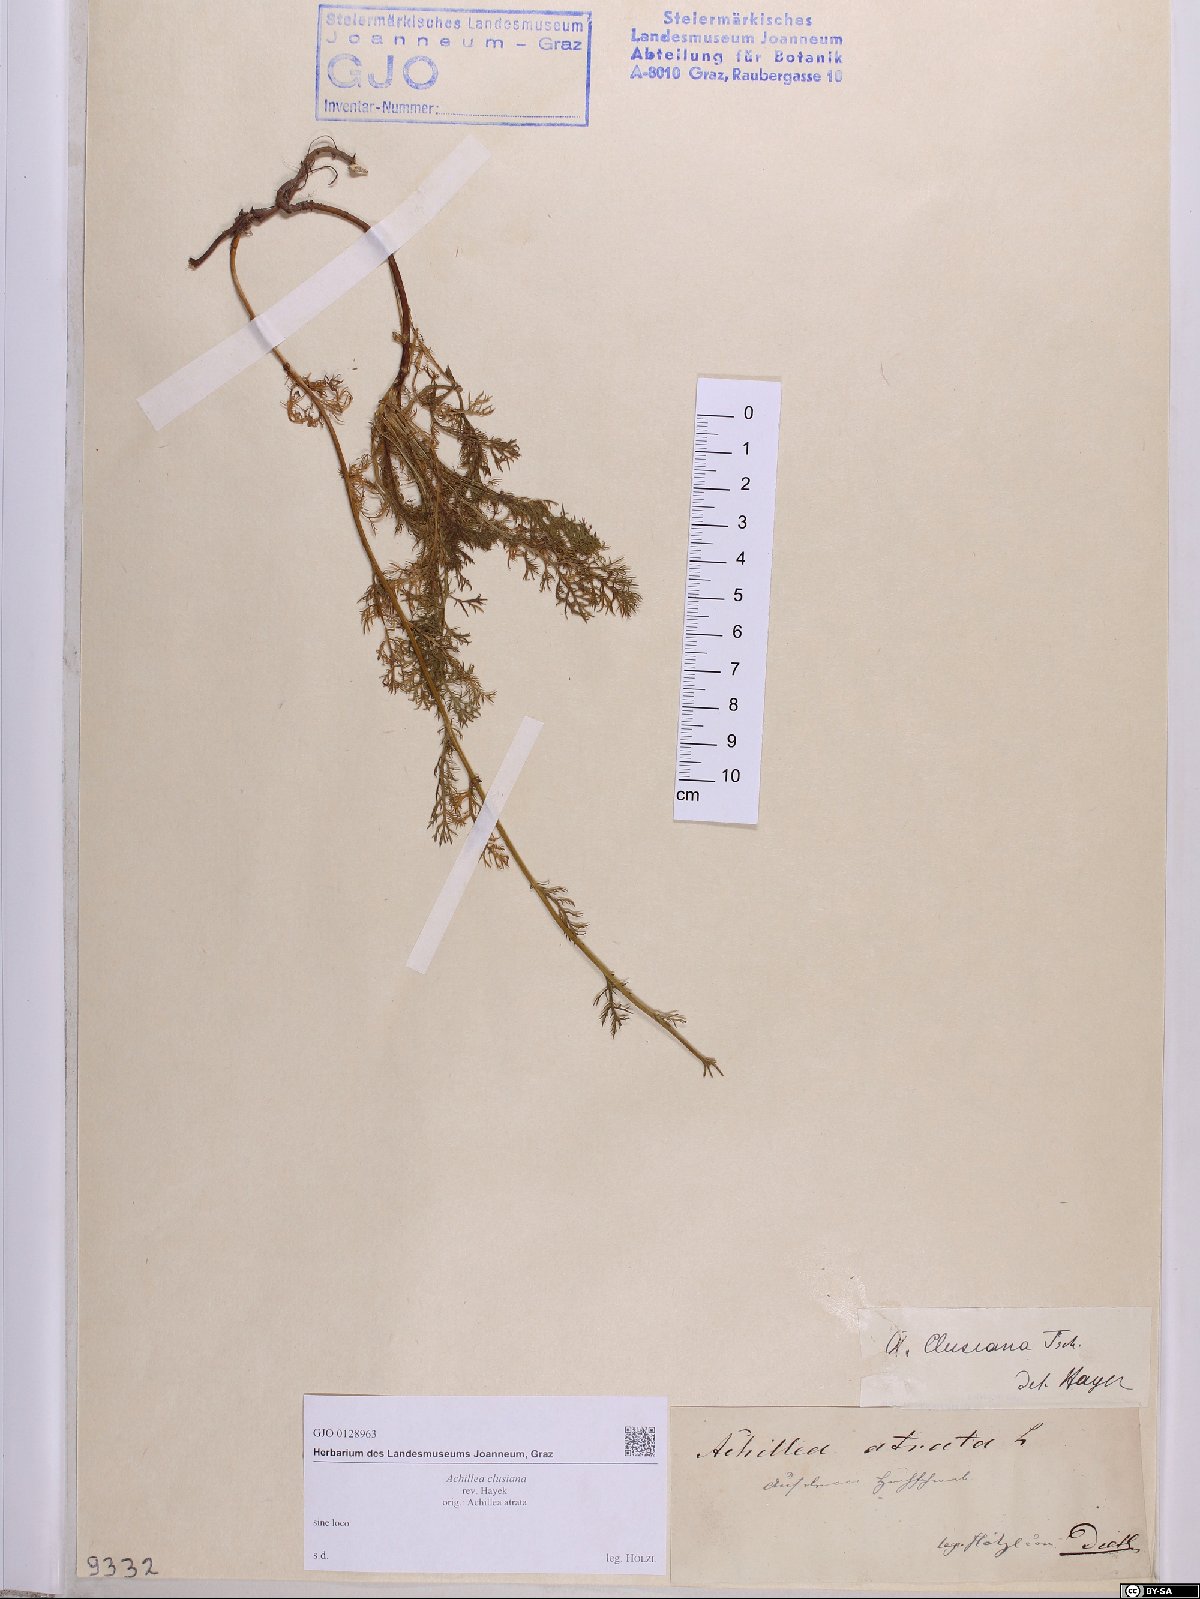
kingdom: Plantae
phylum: Tracheophyta
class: Magnoliopsida
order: Asterales
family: Asteraceae
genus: Achillea
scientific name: Achillea clusiana
